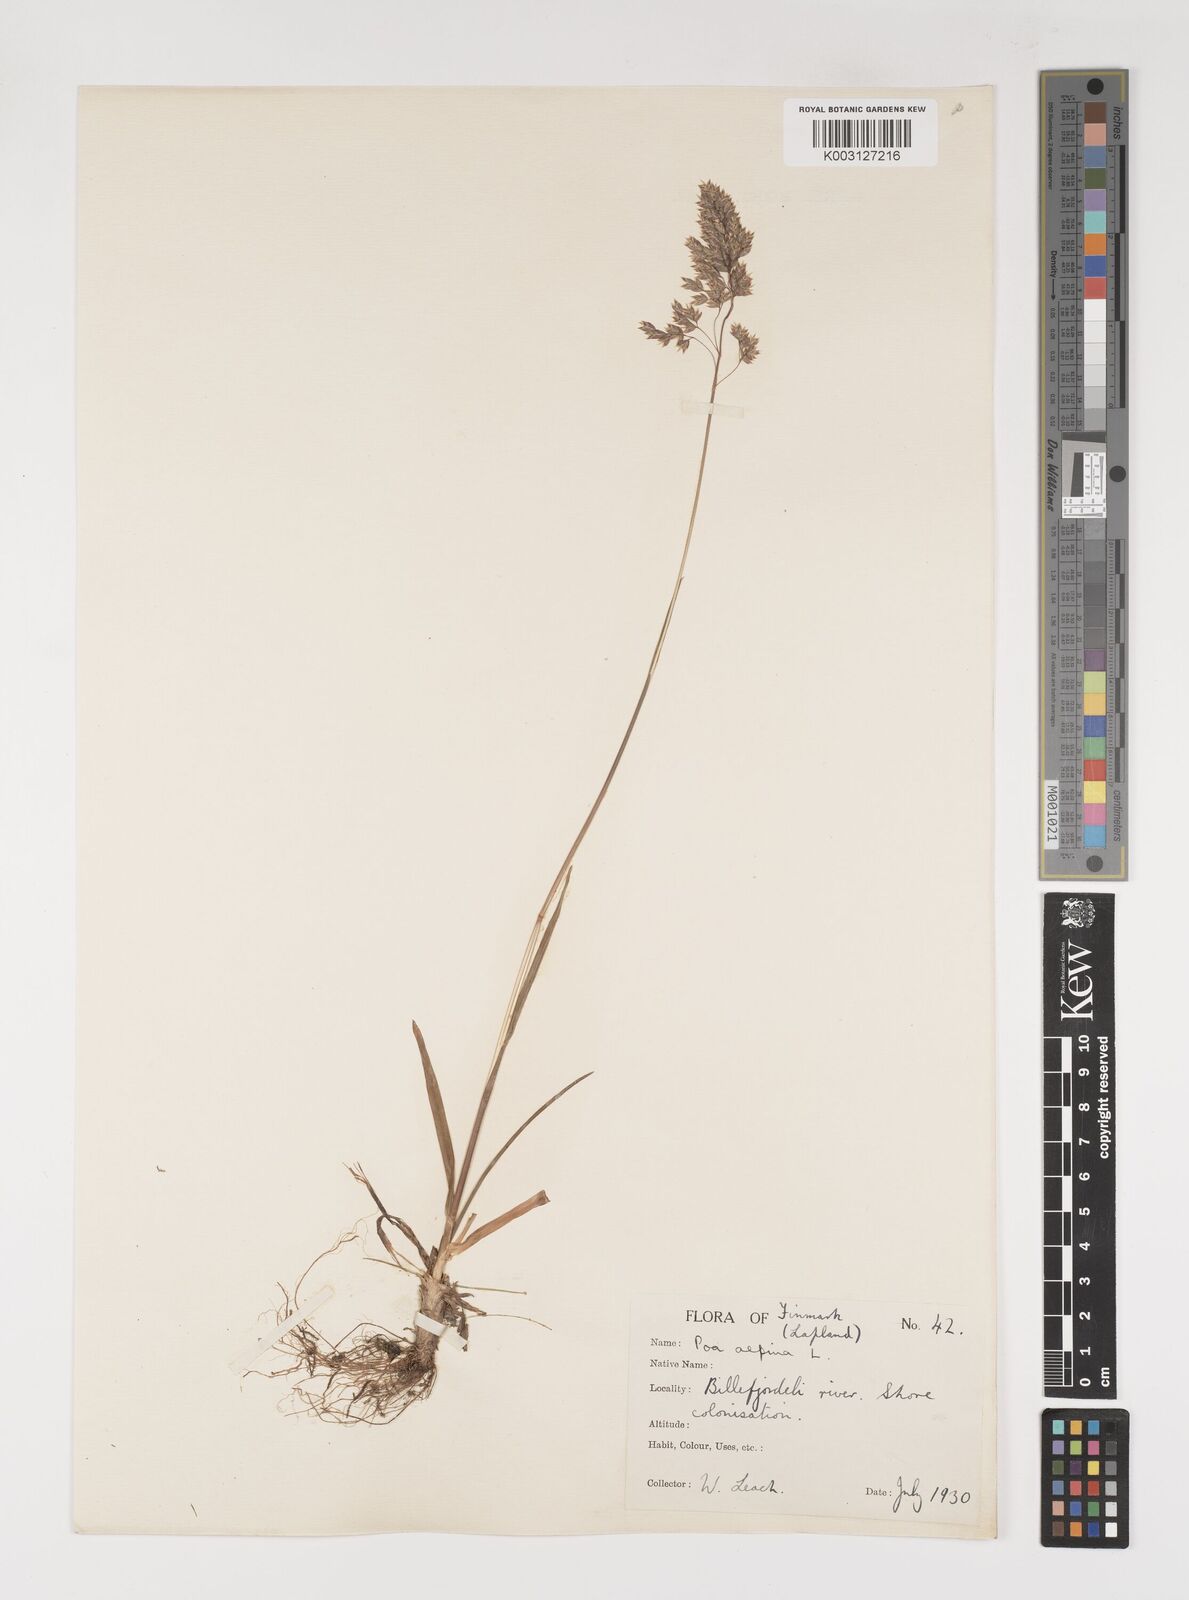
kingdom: Plantae
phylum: Tracheophyta
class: Liliopsida
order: Poales
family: Poaceae
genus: Poa
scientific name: Poa alpina
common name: Alpine bluegrass
